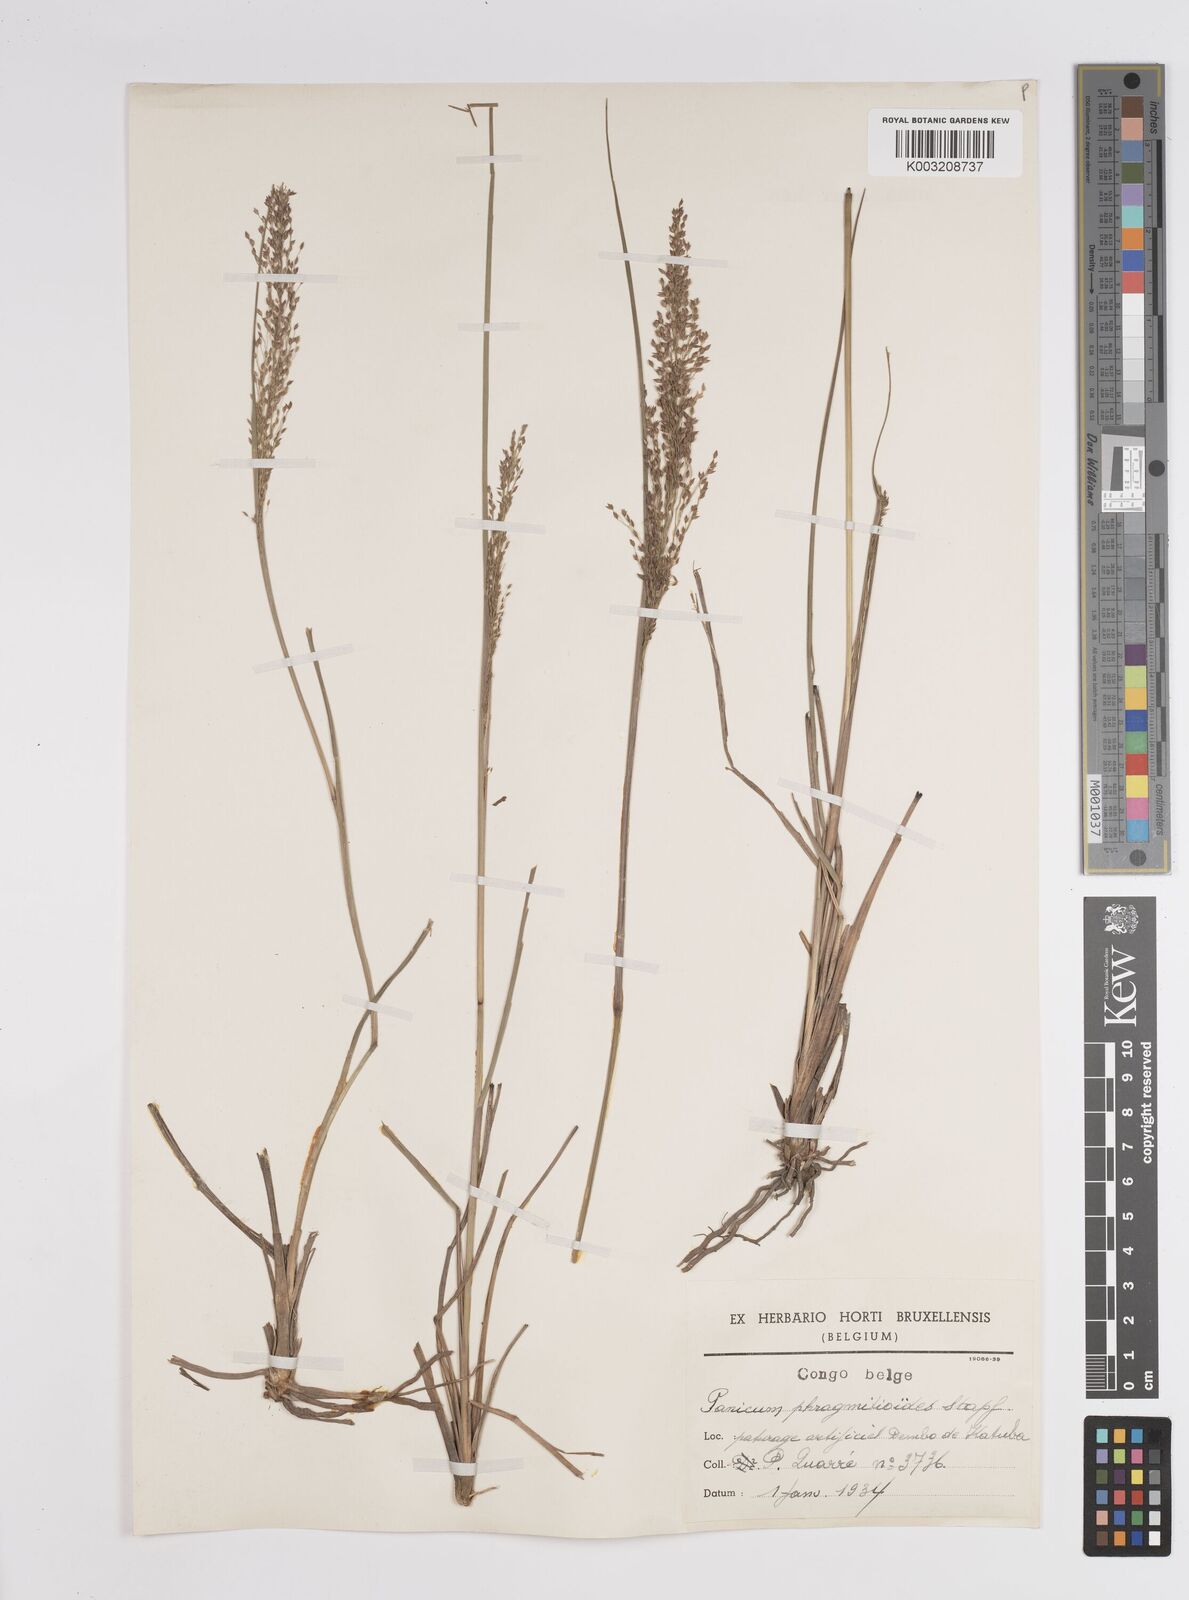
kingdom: Plantae
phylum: Tracheophyta
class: Liliopsida
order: Poales
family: Poaceae
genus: Panicum
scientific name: Panicum dregeanum
